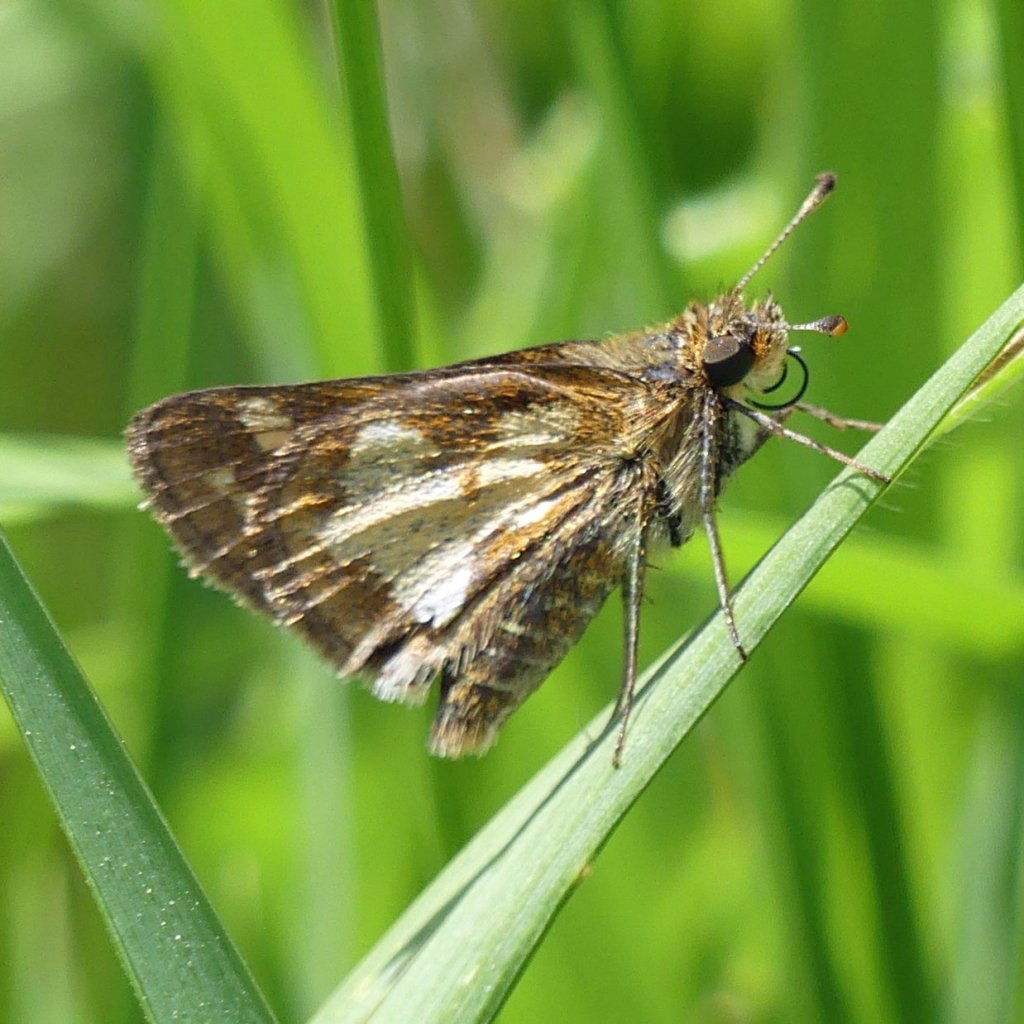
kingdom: Animalia
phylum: Arthropoda
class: Insecta
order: Lepidoptera
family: Hesperiidae
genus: Polites
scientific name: Polites coras
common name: Peck's Skipper
